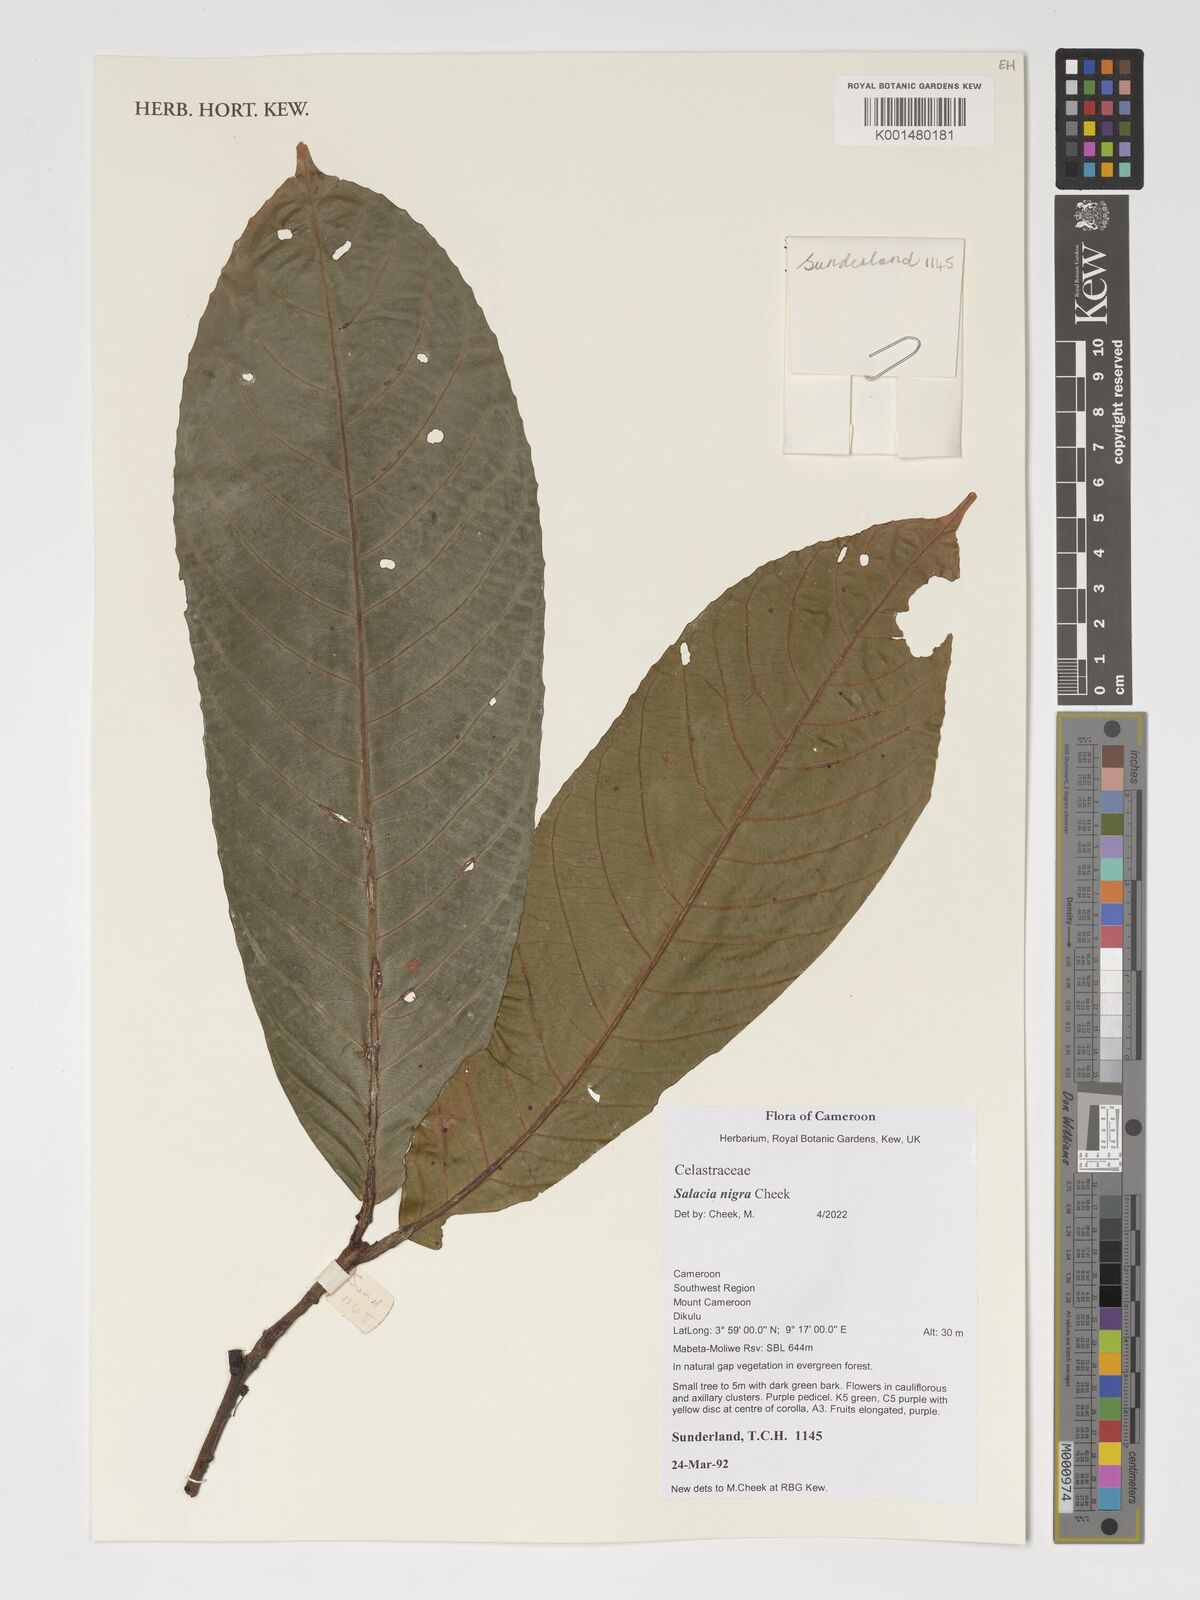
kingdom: Plantae
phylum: Tracheophyta
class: Magnoliopsida
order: Celastrales
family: Celastraceae
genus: Salacia
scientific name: Salacia nigra
